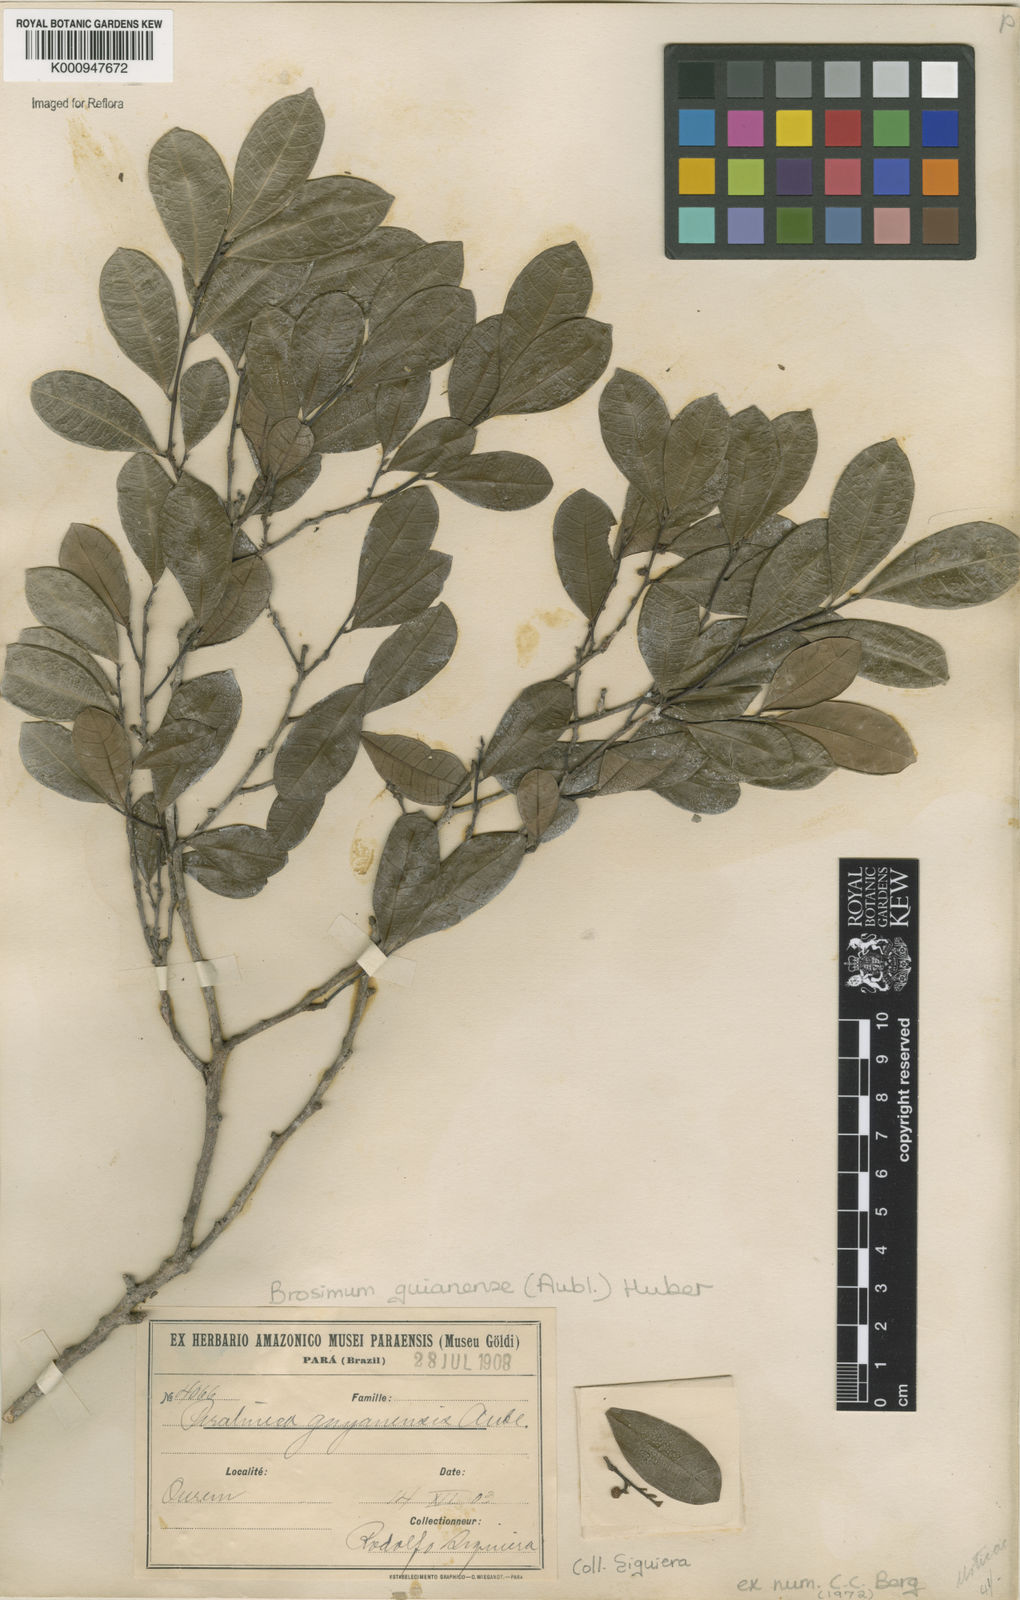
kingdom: Plantae
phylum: Tracheophyta
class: Magnoliopsida
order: Rosales
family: Moraceae
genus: Brosimum
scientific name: Brosimum
